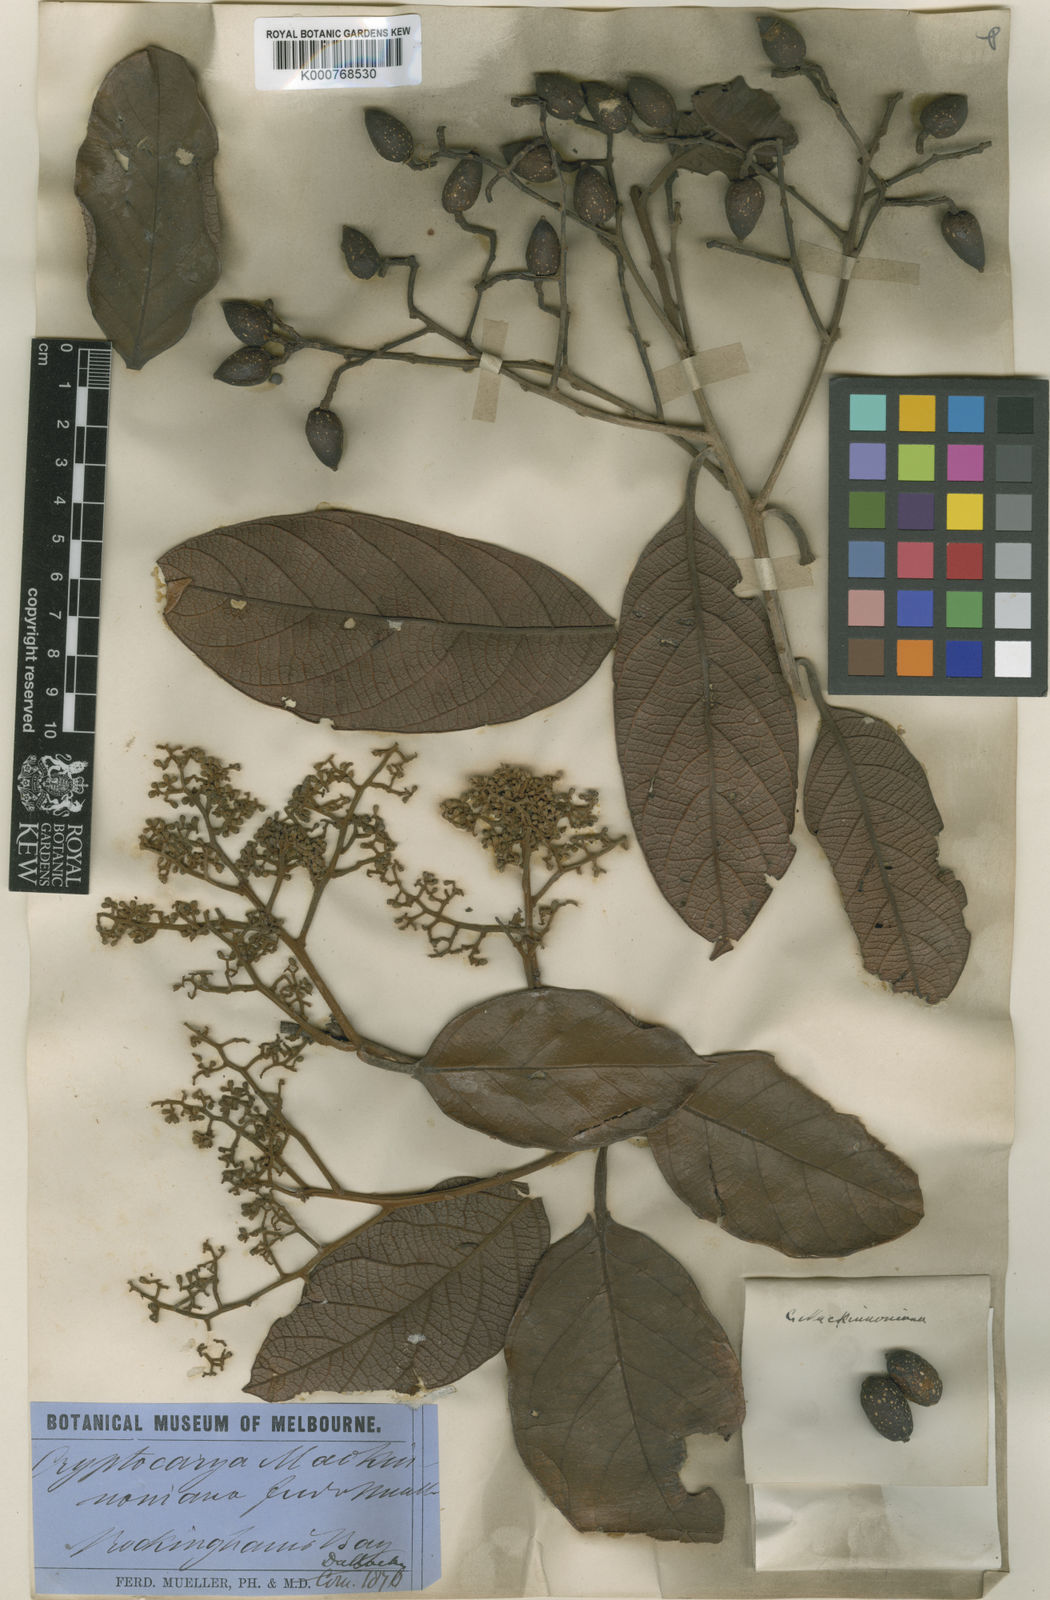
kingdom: Plantae
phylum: Tracheophyta
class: Magnoliopsida
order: Laurales
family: Lauraceae
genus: Cryptocarya
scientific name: Cryptocarya mackinnoniana
